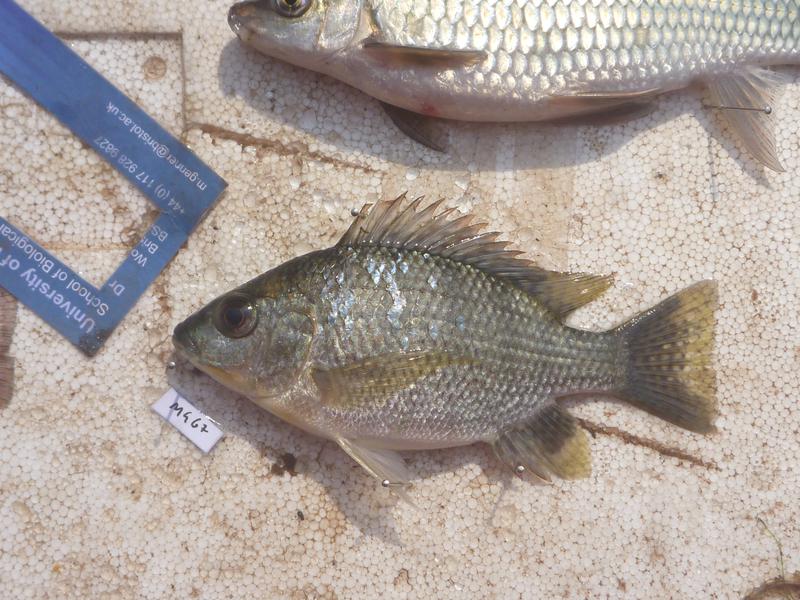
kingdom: Animalia
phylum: Chordata
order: Perciformes
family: Cichlidae
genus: Oreochromis
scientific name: Oreochromis tanganicae
